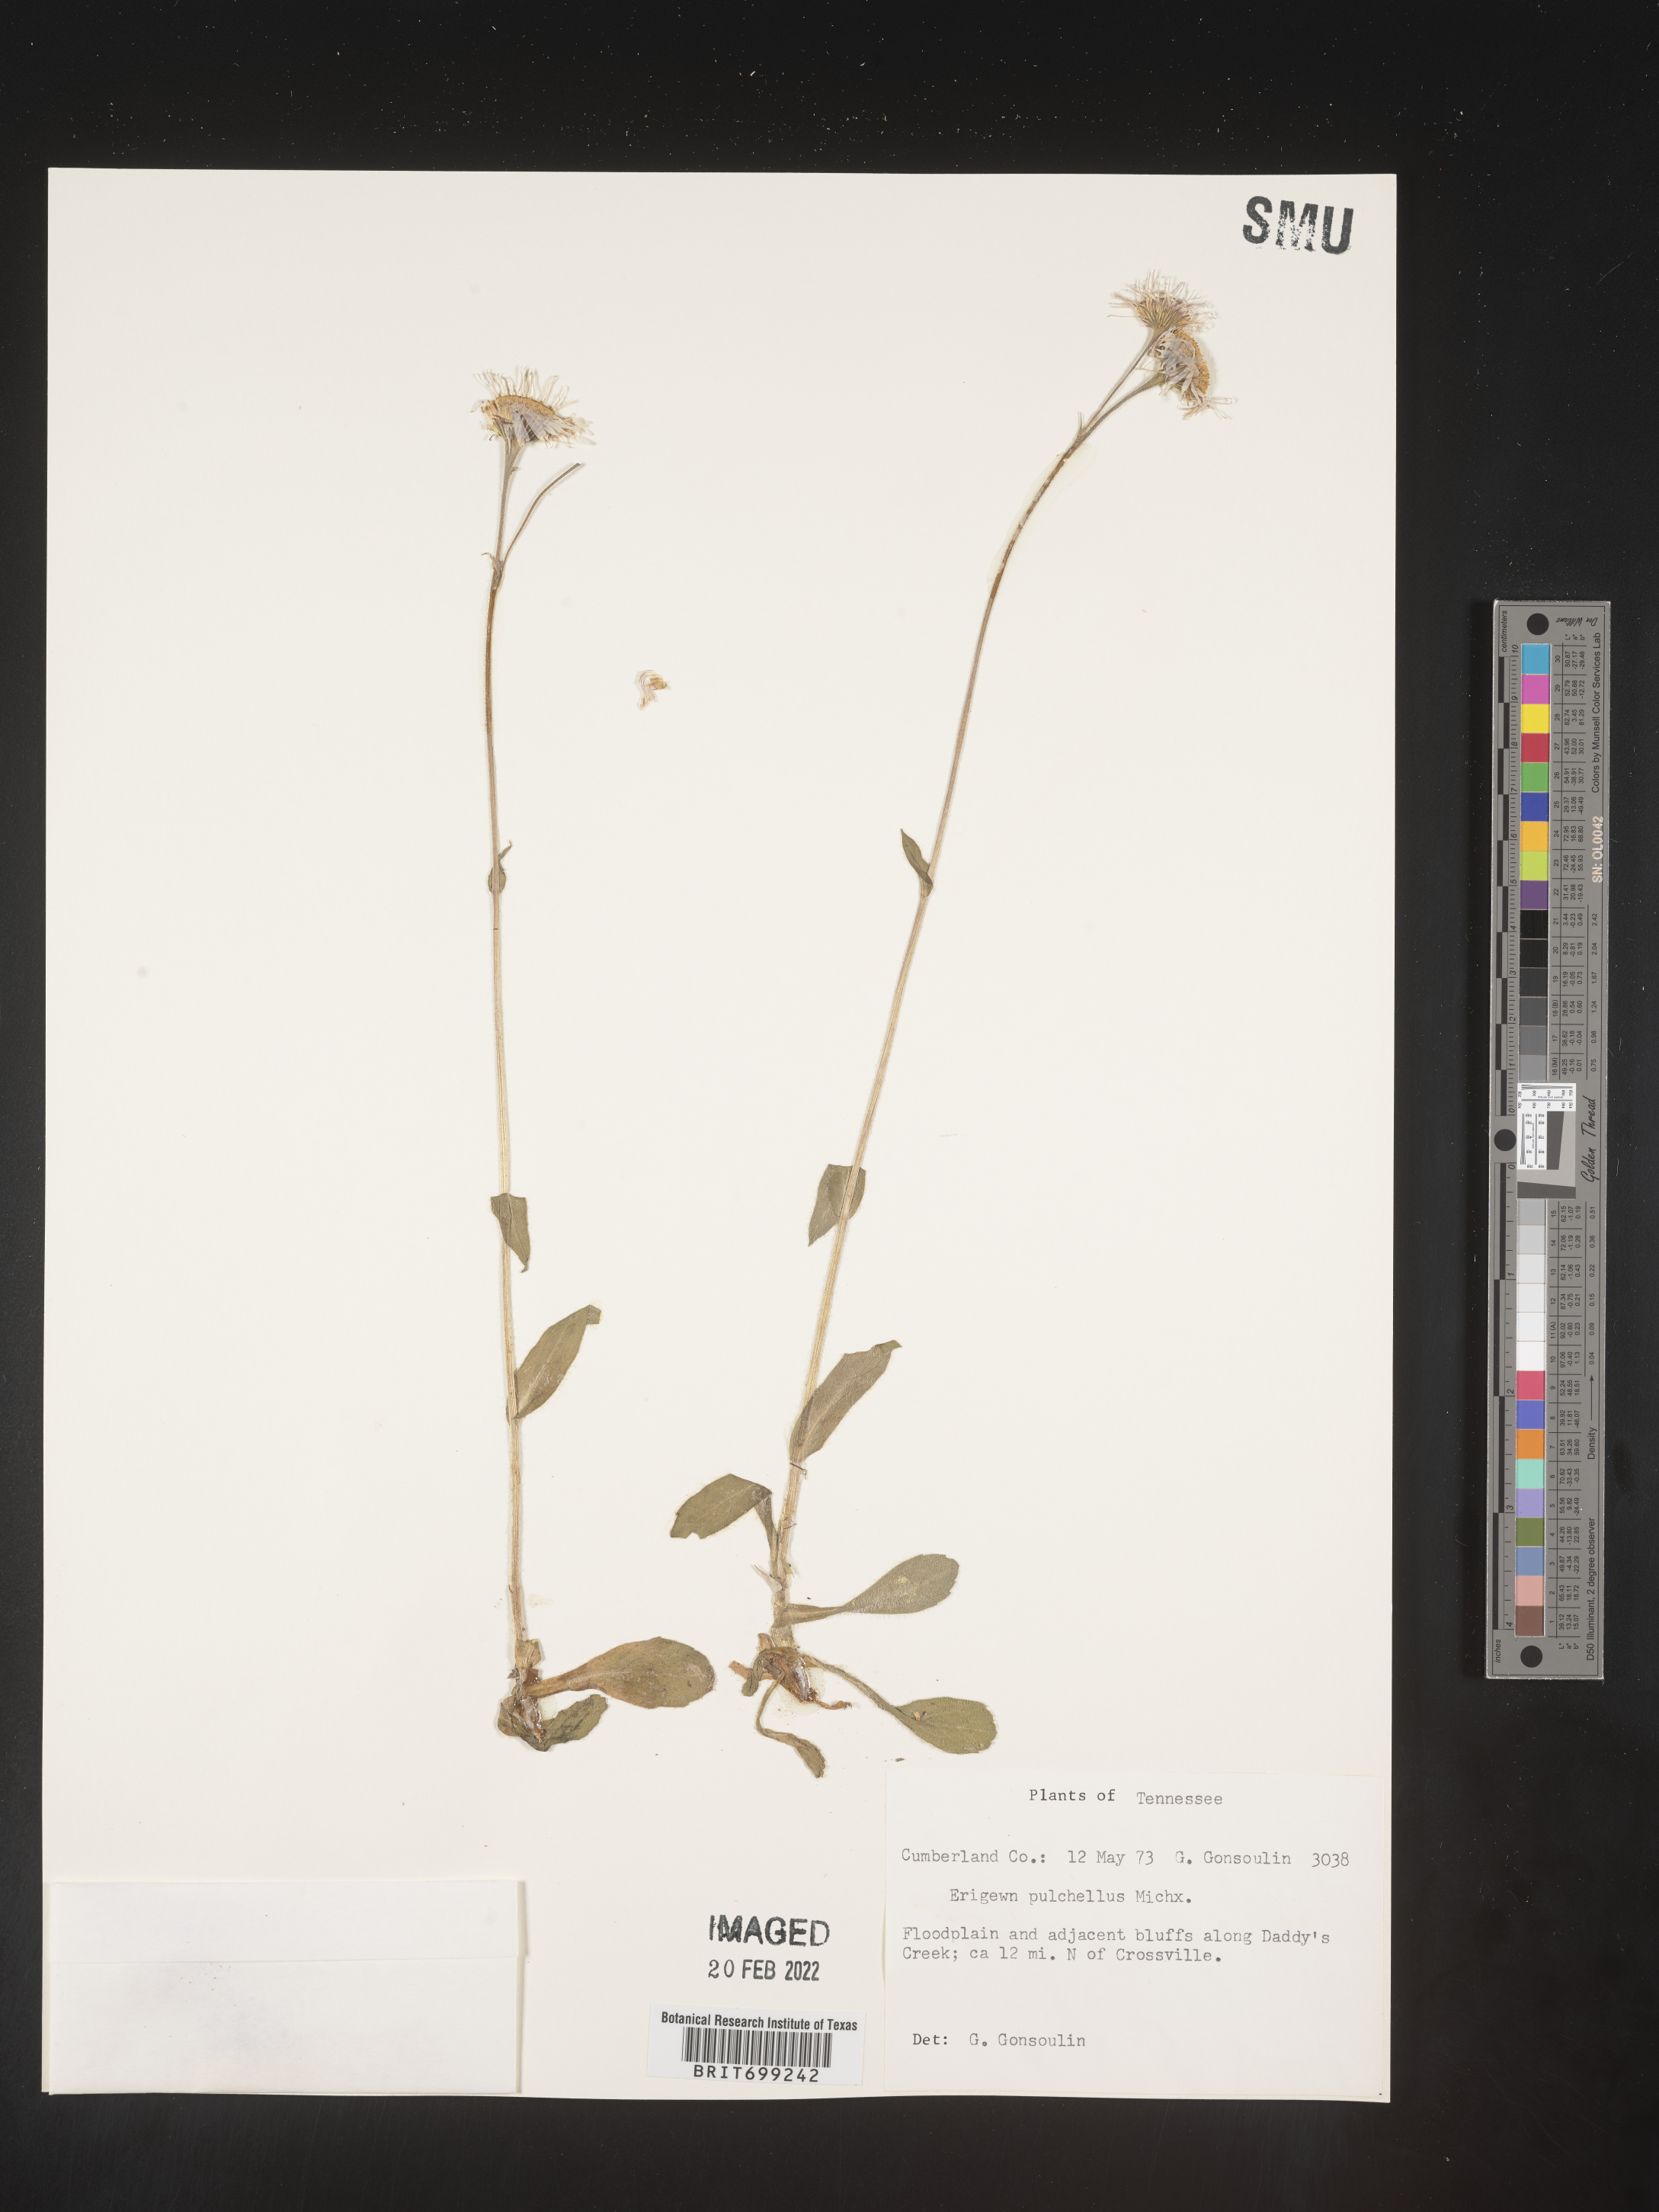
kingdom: Plantae
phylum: Tracheophyta
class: Magnoliopsida
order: Asterales
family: Asteraceae
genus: Erigeron
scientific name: Erigeron pulchellus
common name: Hairy fleabane
